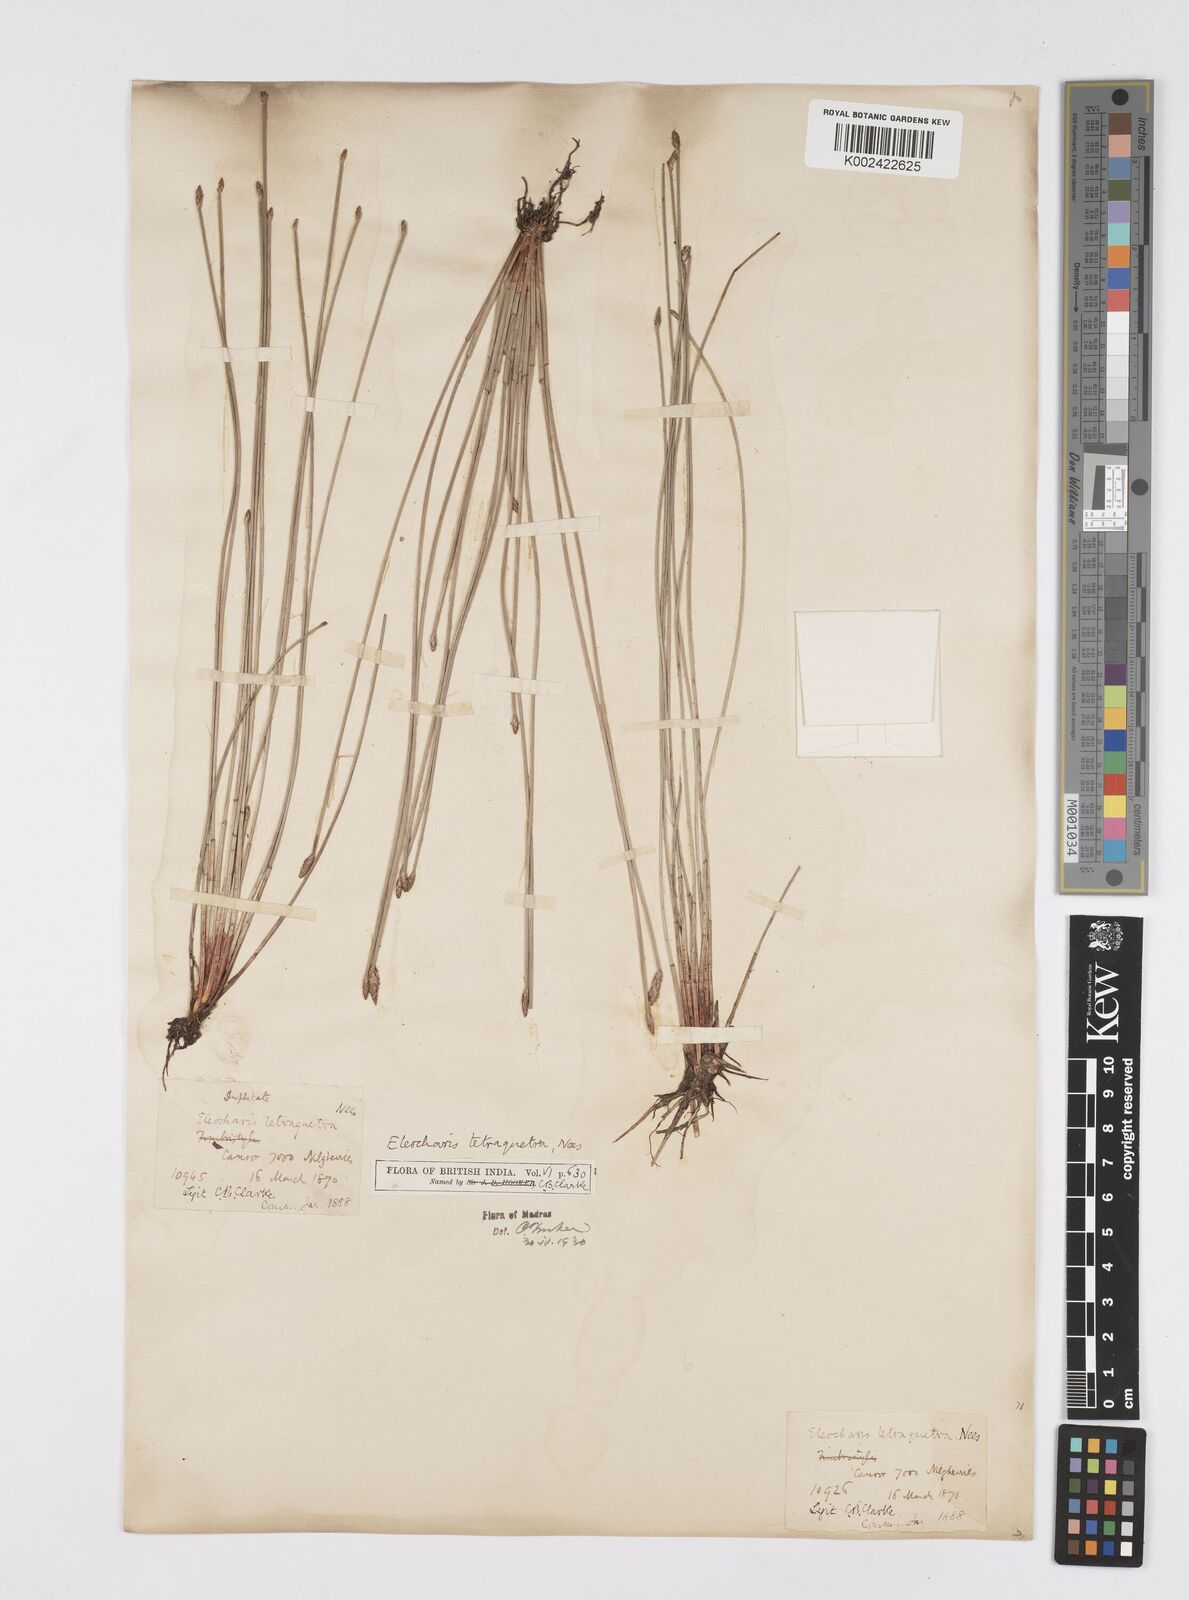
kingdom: Plantae
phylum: Tracheophyta
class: Liliopsida
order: Poales
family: Cyperaceae
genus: Eleocharis
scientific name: Eleocharis tetraquetra
